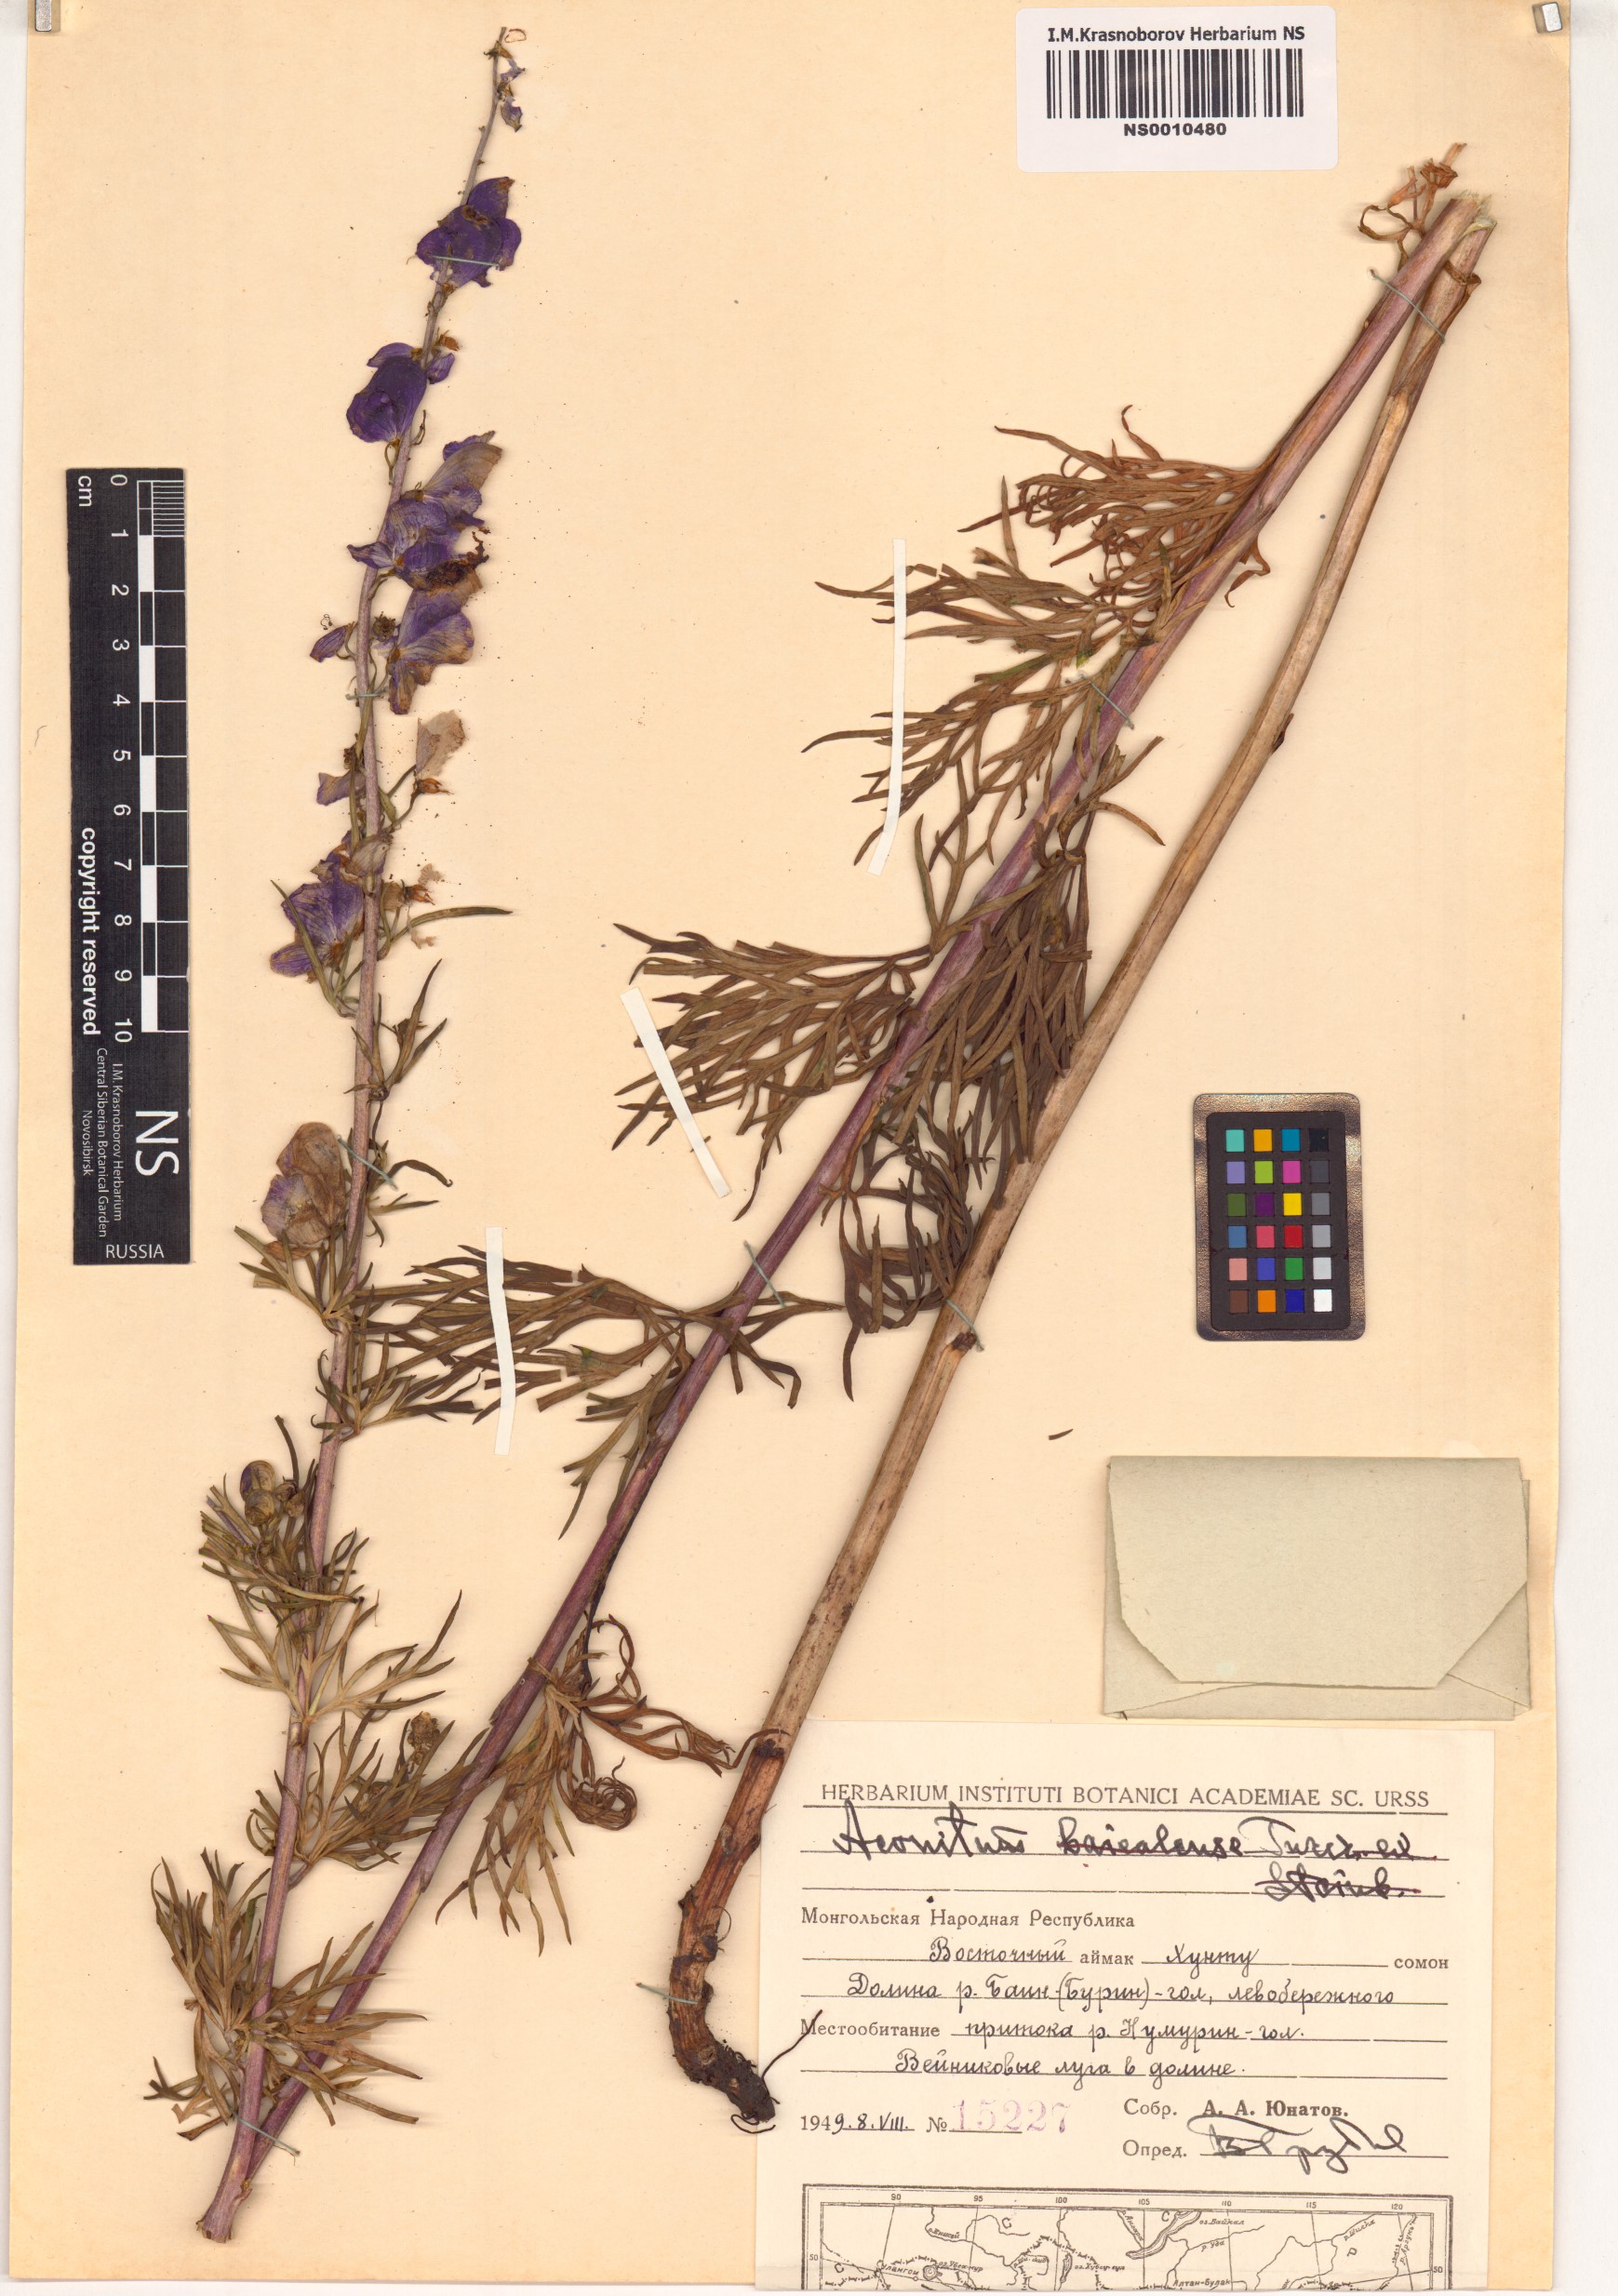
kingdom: Plantae
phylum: Tracheophyta
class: Magnoliopsida
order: Ranunculales
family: Ranunculaceae
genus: Aconitum
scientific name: Aconitum ambiguum
